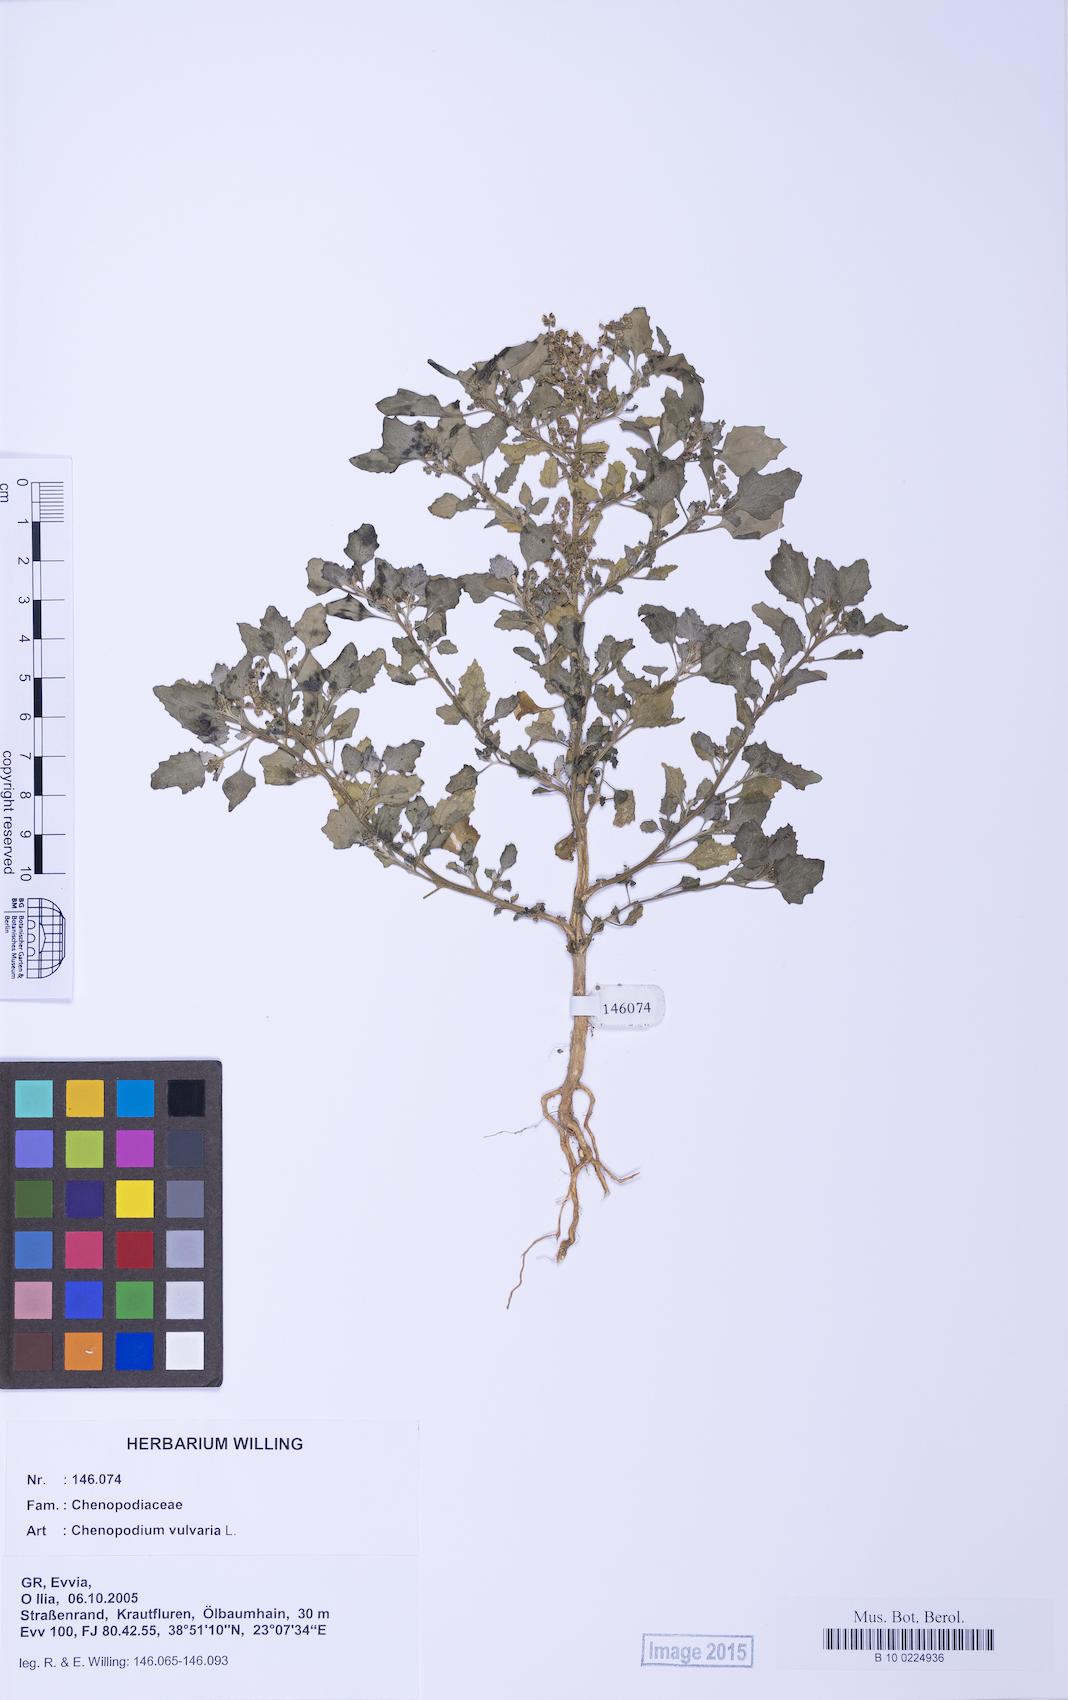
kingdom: Plantae
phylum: Tracheophyta
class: Magnoliopsida
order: Caryophyllales
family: Amaranthaceae
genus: Chenopodium
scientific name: Chenopodium vulvaria
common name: Stinking goosefoot
